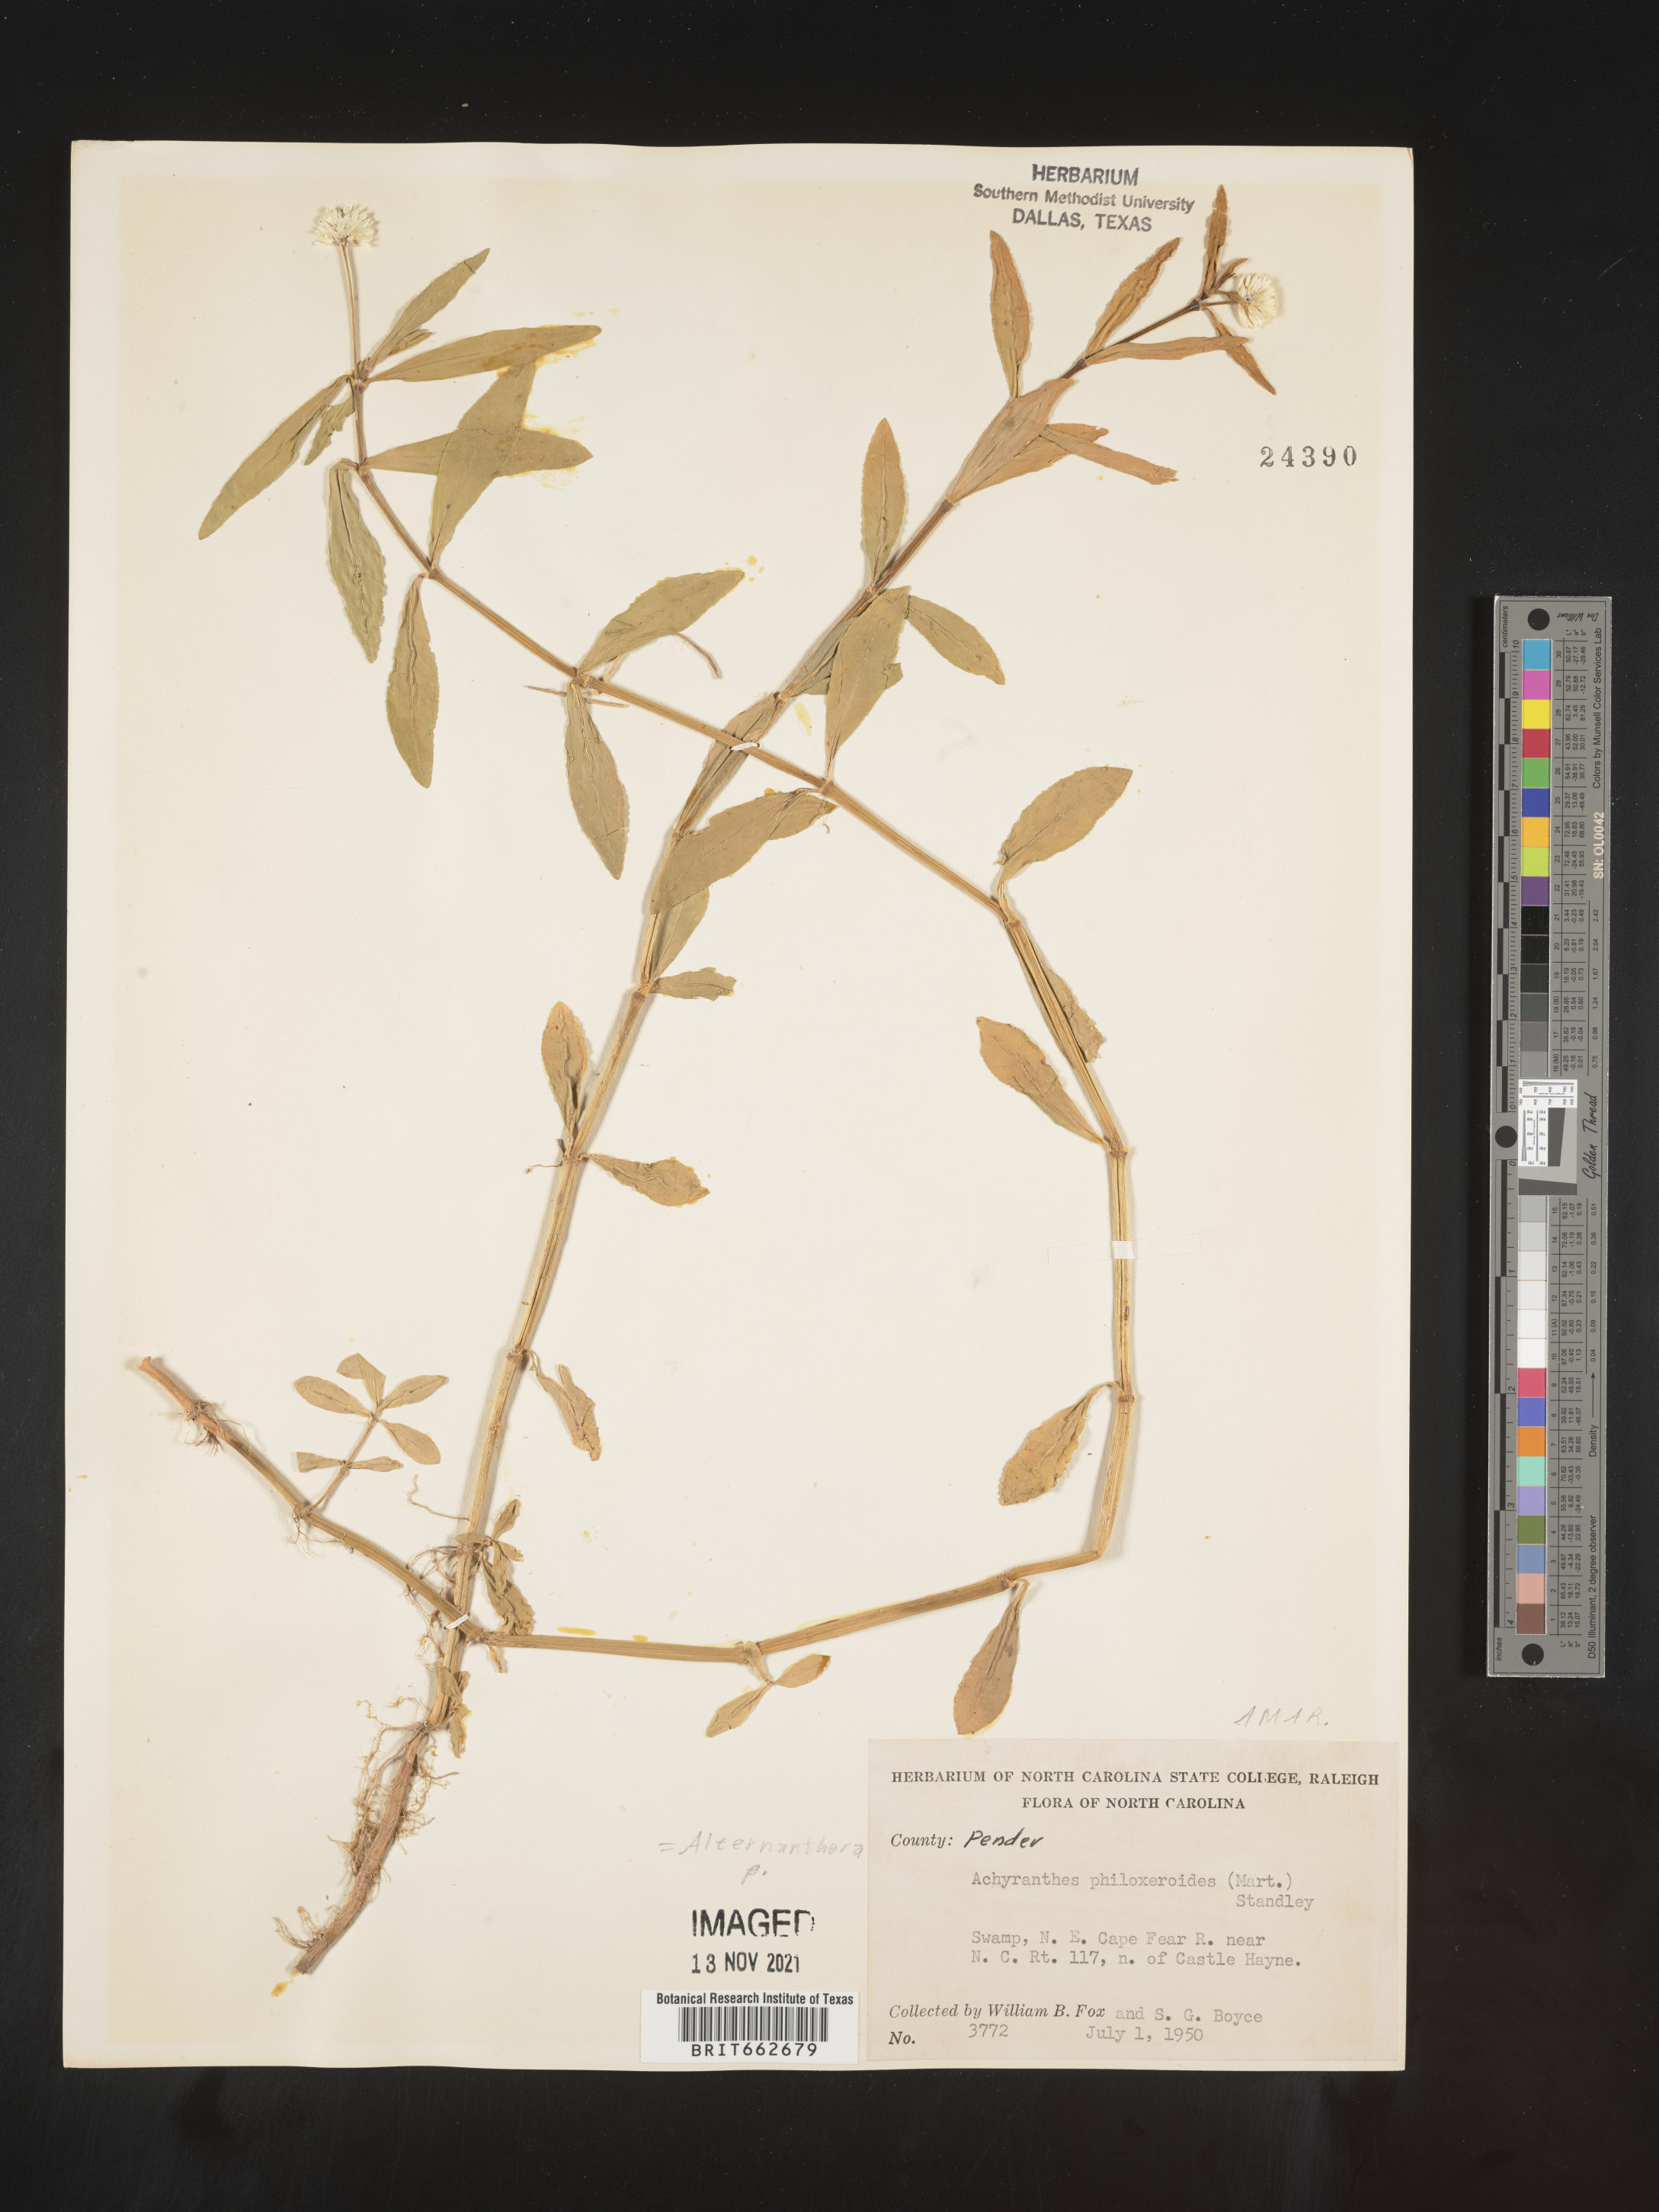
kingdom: Plantae
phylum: Tracheophyta
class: Magnoliopsida
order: Caryophyllales
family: Amaranthaceae
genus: Alternanthera
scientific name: Alternanthera philoxeroides
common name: Alligatorweed
